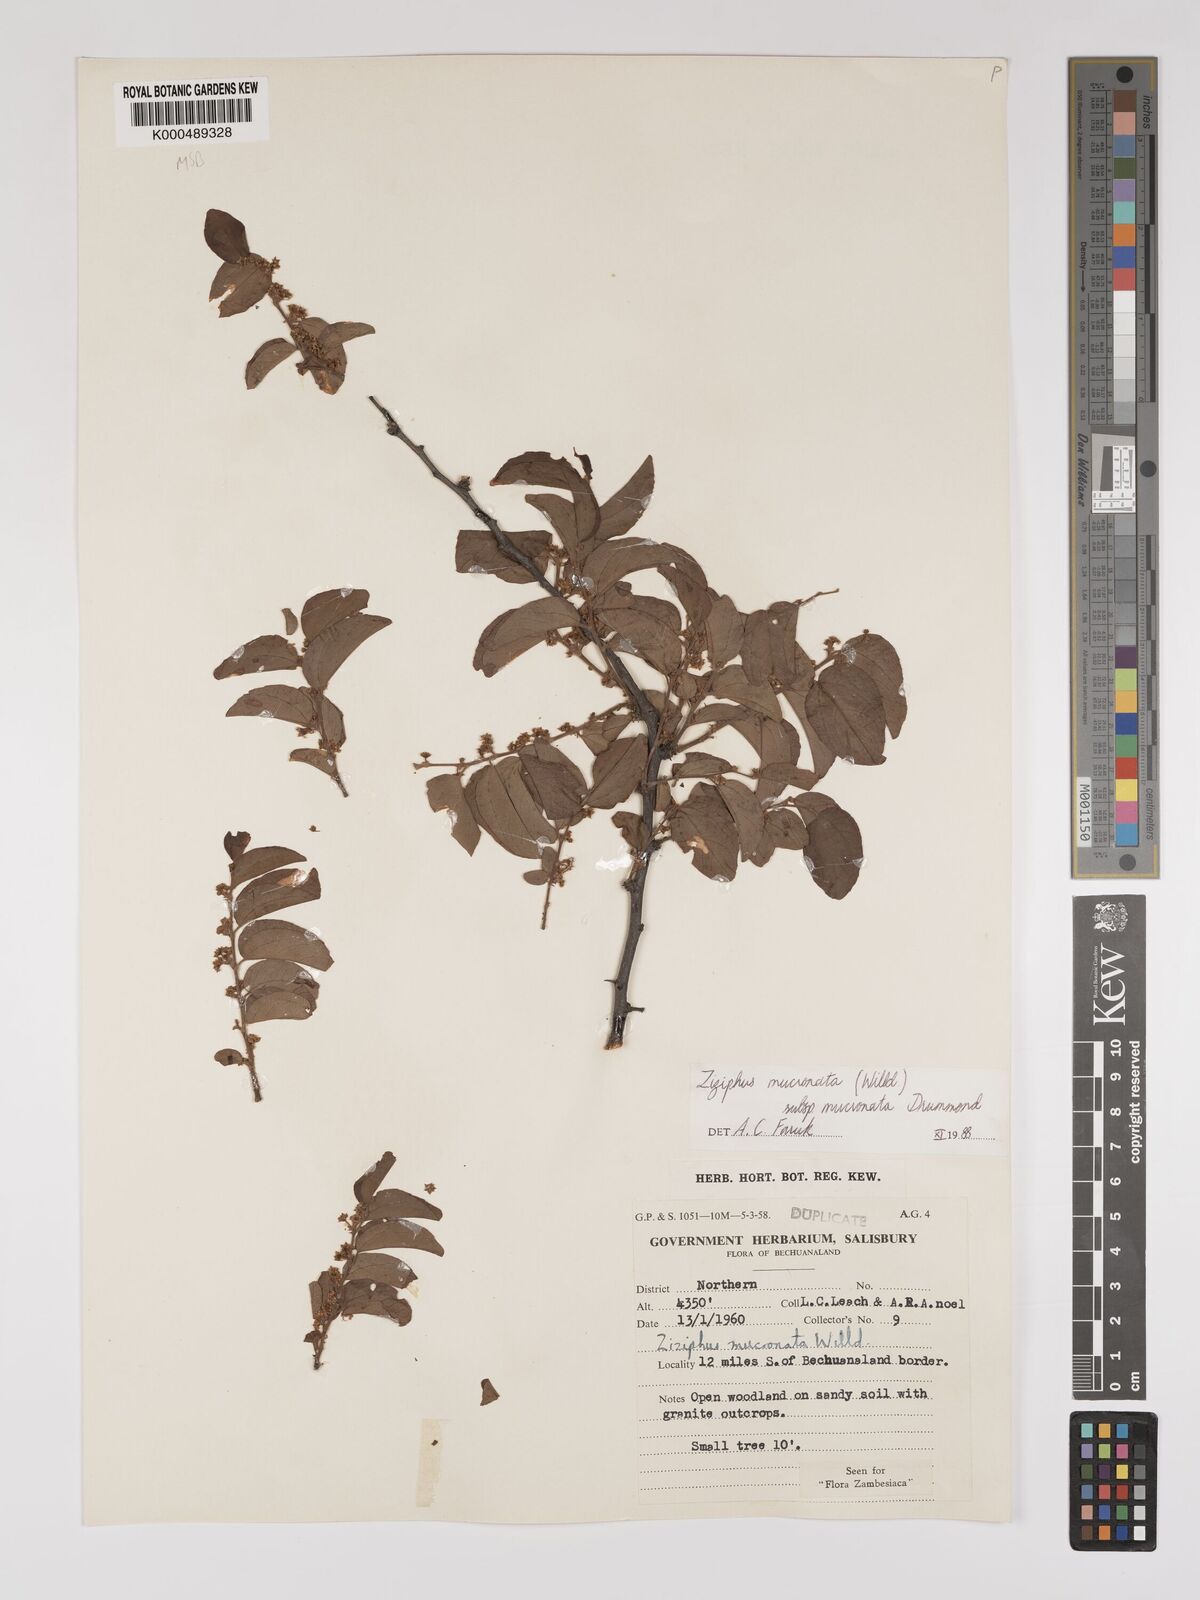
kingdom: Plantae
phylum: Tracheophyta
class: Magnoliopsida
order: Rosales
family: Rhamnaceae
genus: Ziziphus
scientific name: Ziziphus mucronata
